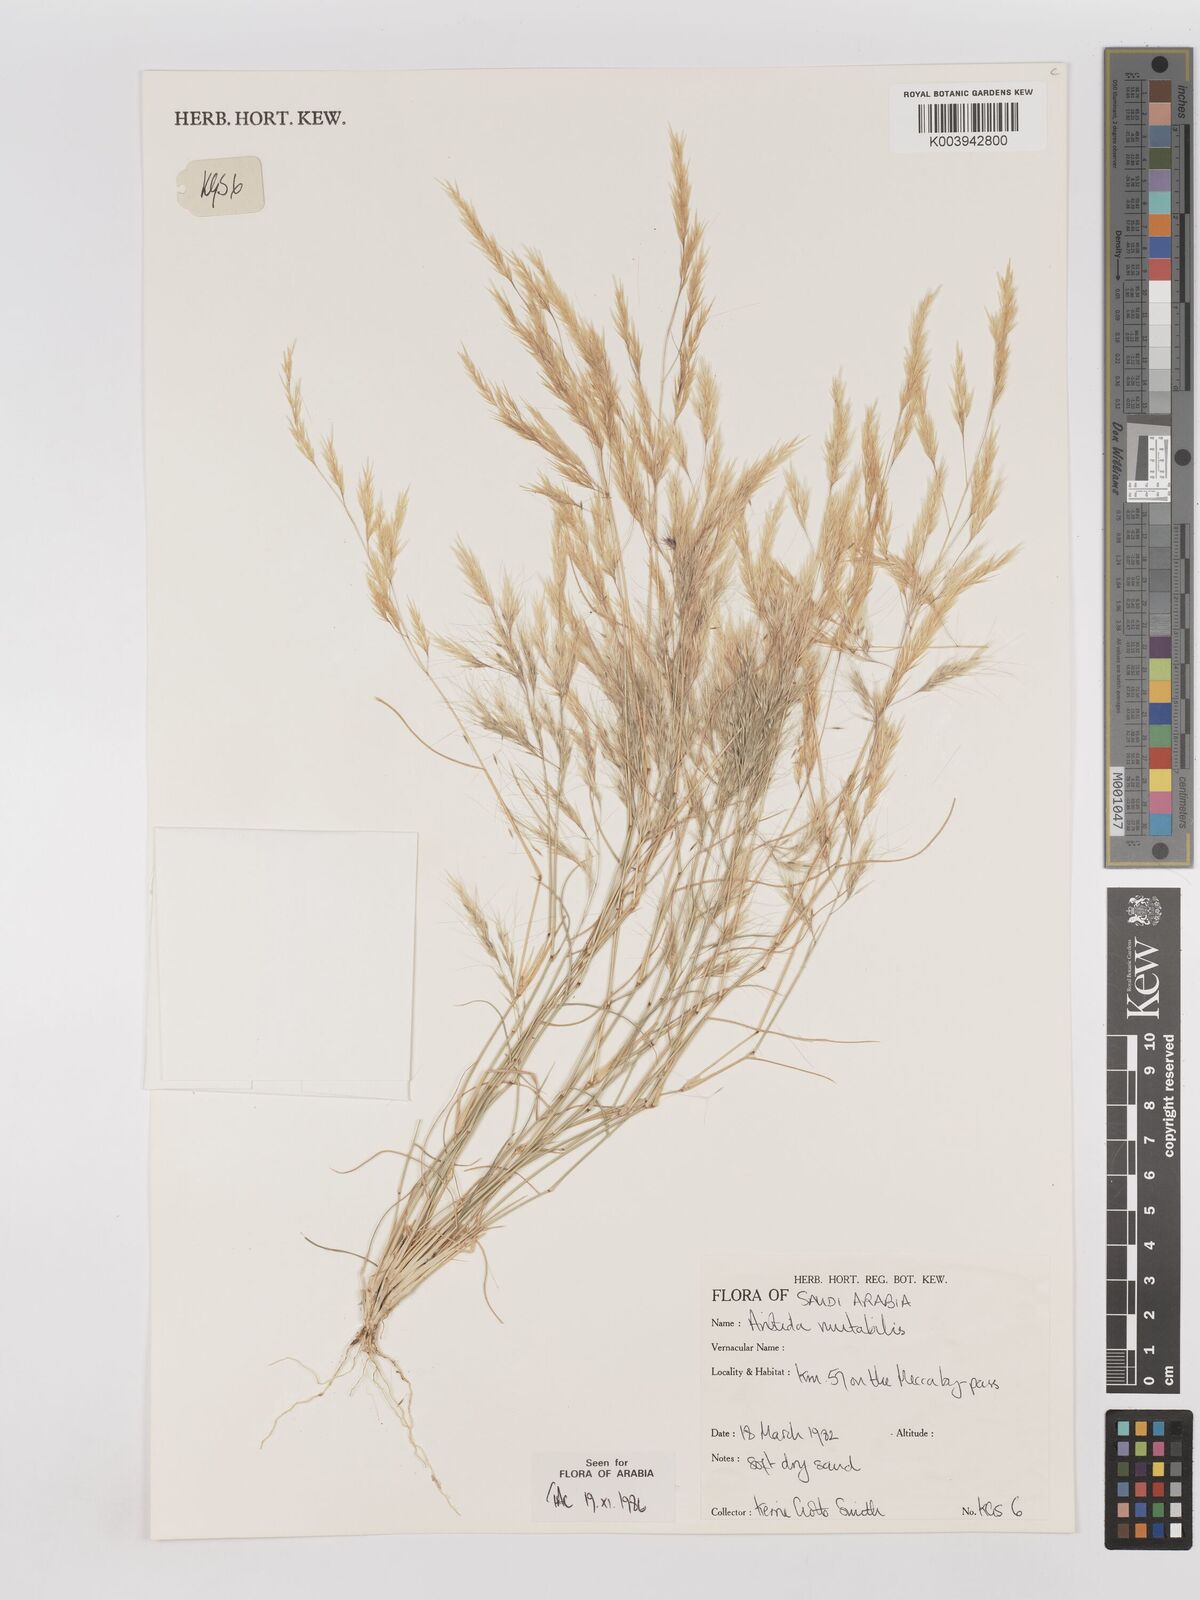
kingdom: Plantae
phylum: Tracheophyta
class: Liliopsida
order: Poales
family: Poaceae
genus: Aristida
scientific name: Aristida mutabilis
